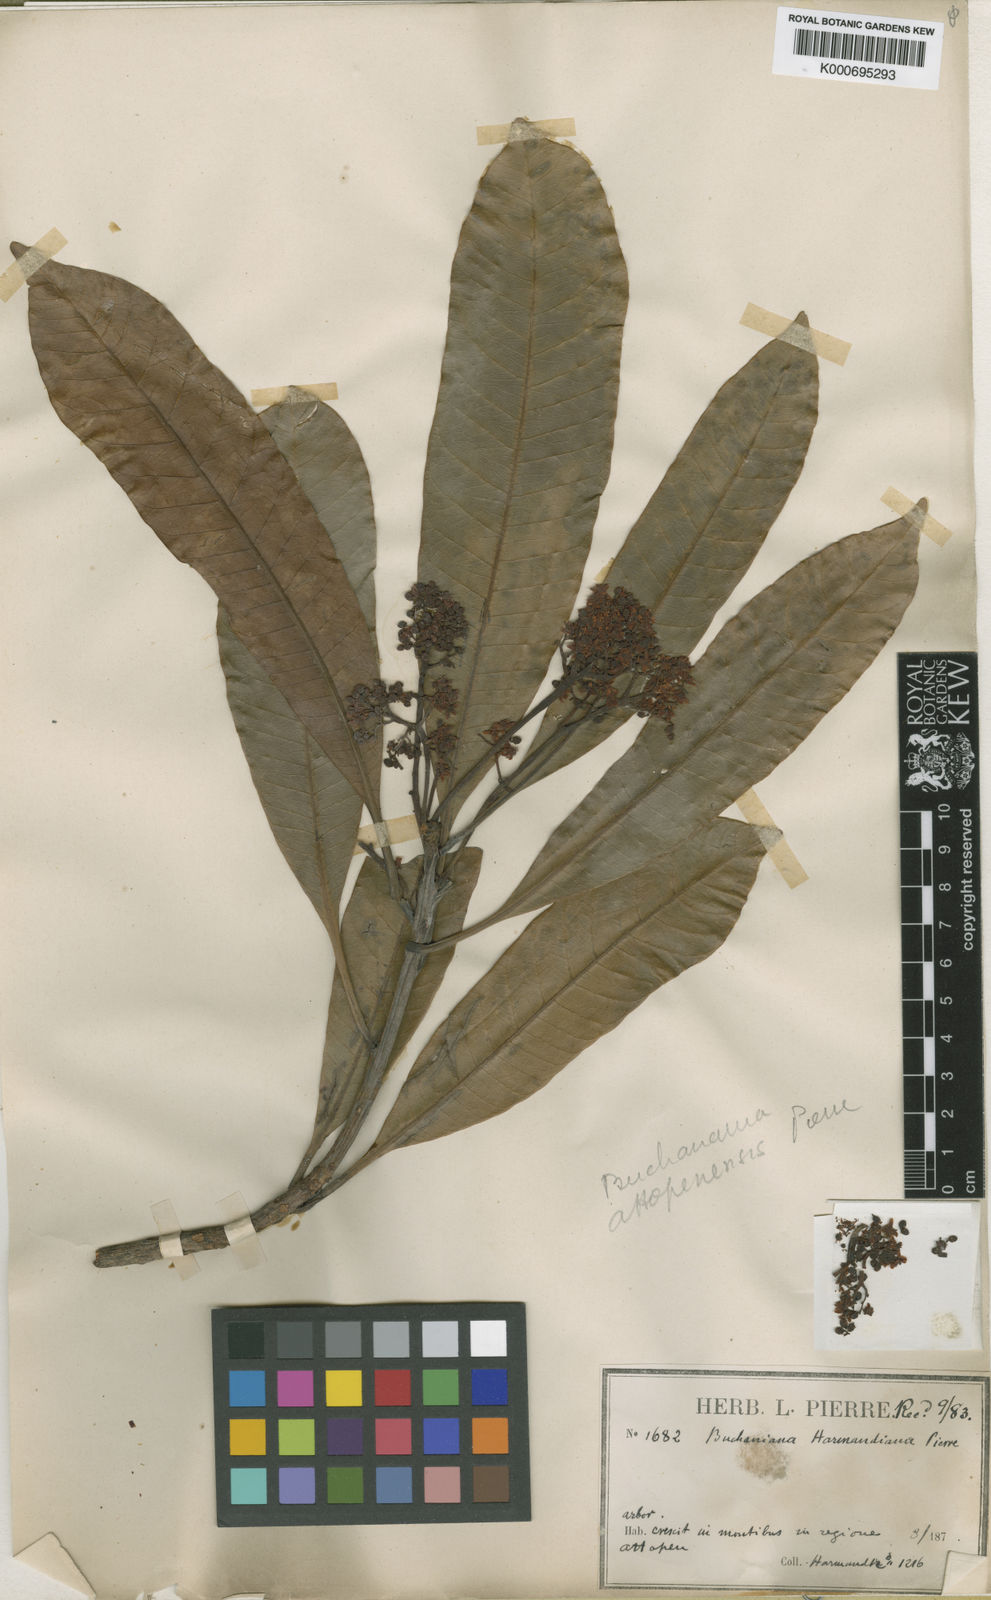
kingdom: Plantae
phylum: Tracheophyta
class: Magnoliopsida
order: Sapindales
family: Anacardiaceae
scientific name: Anacardiaceae
